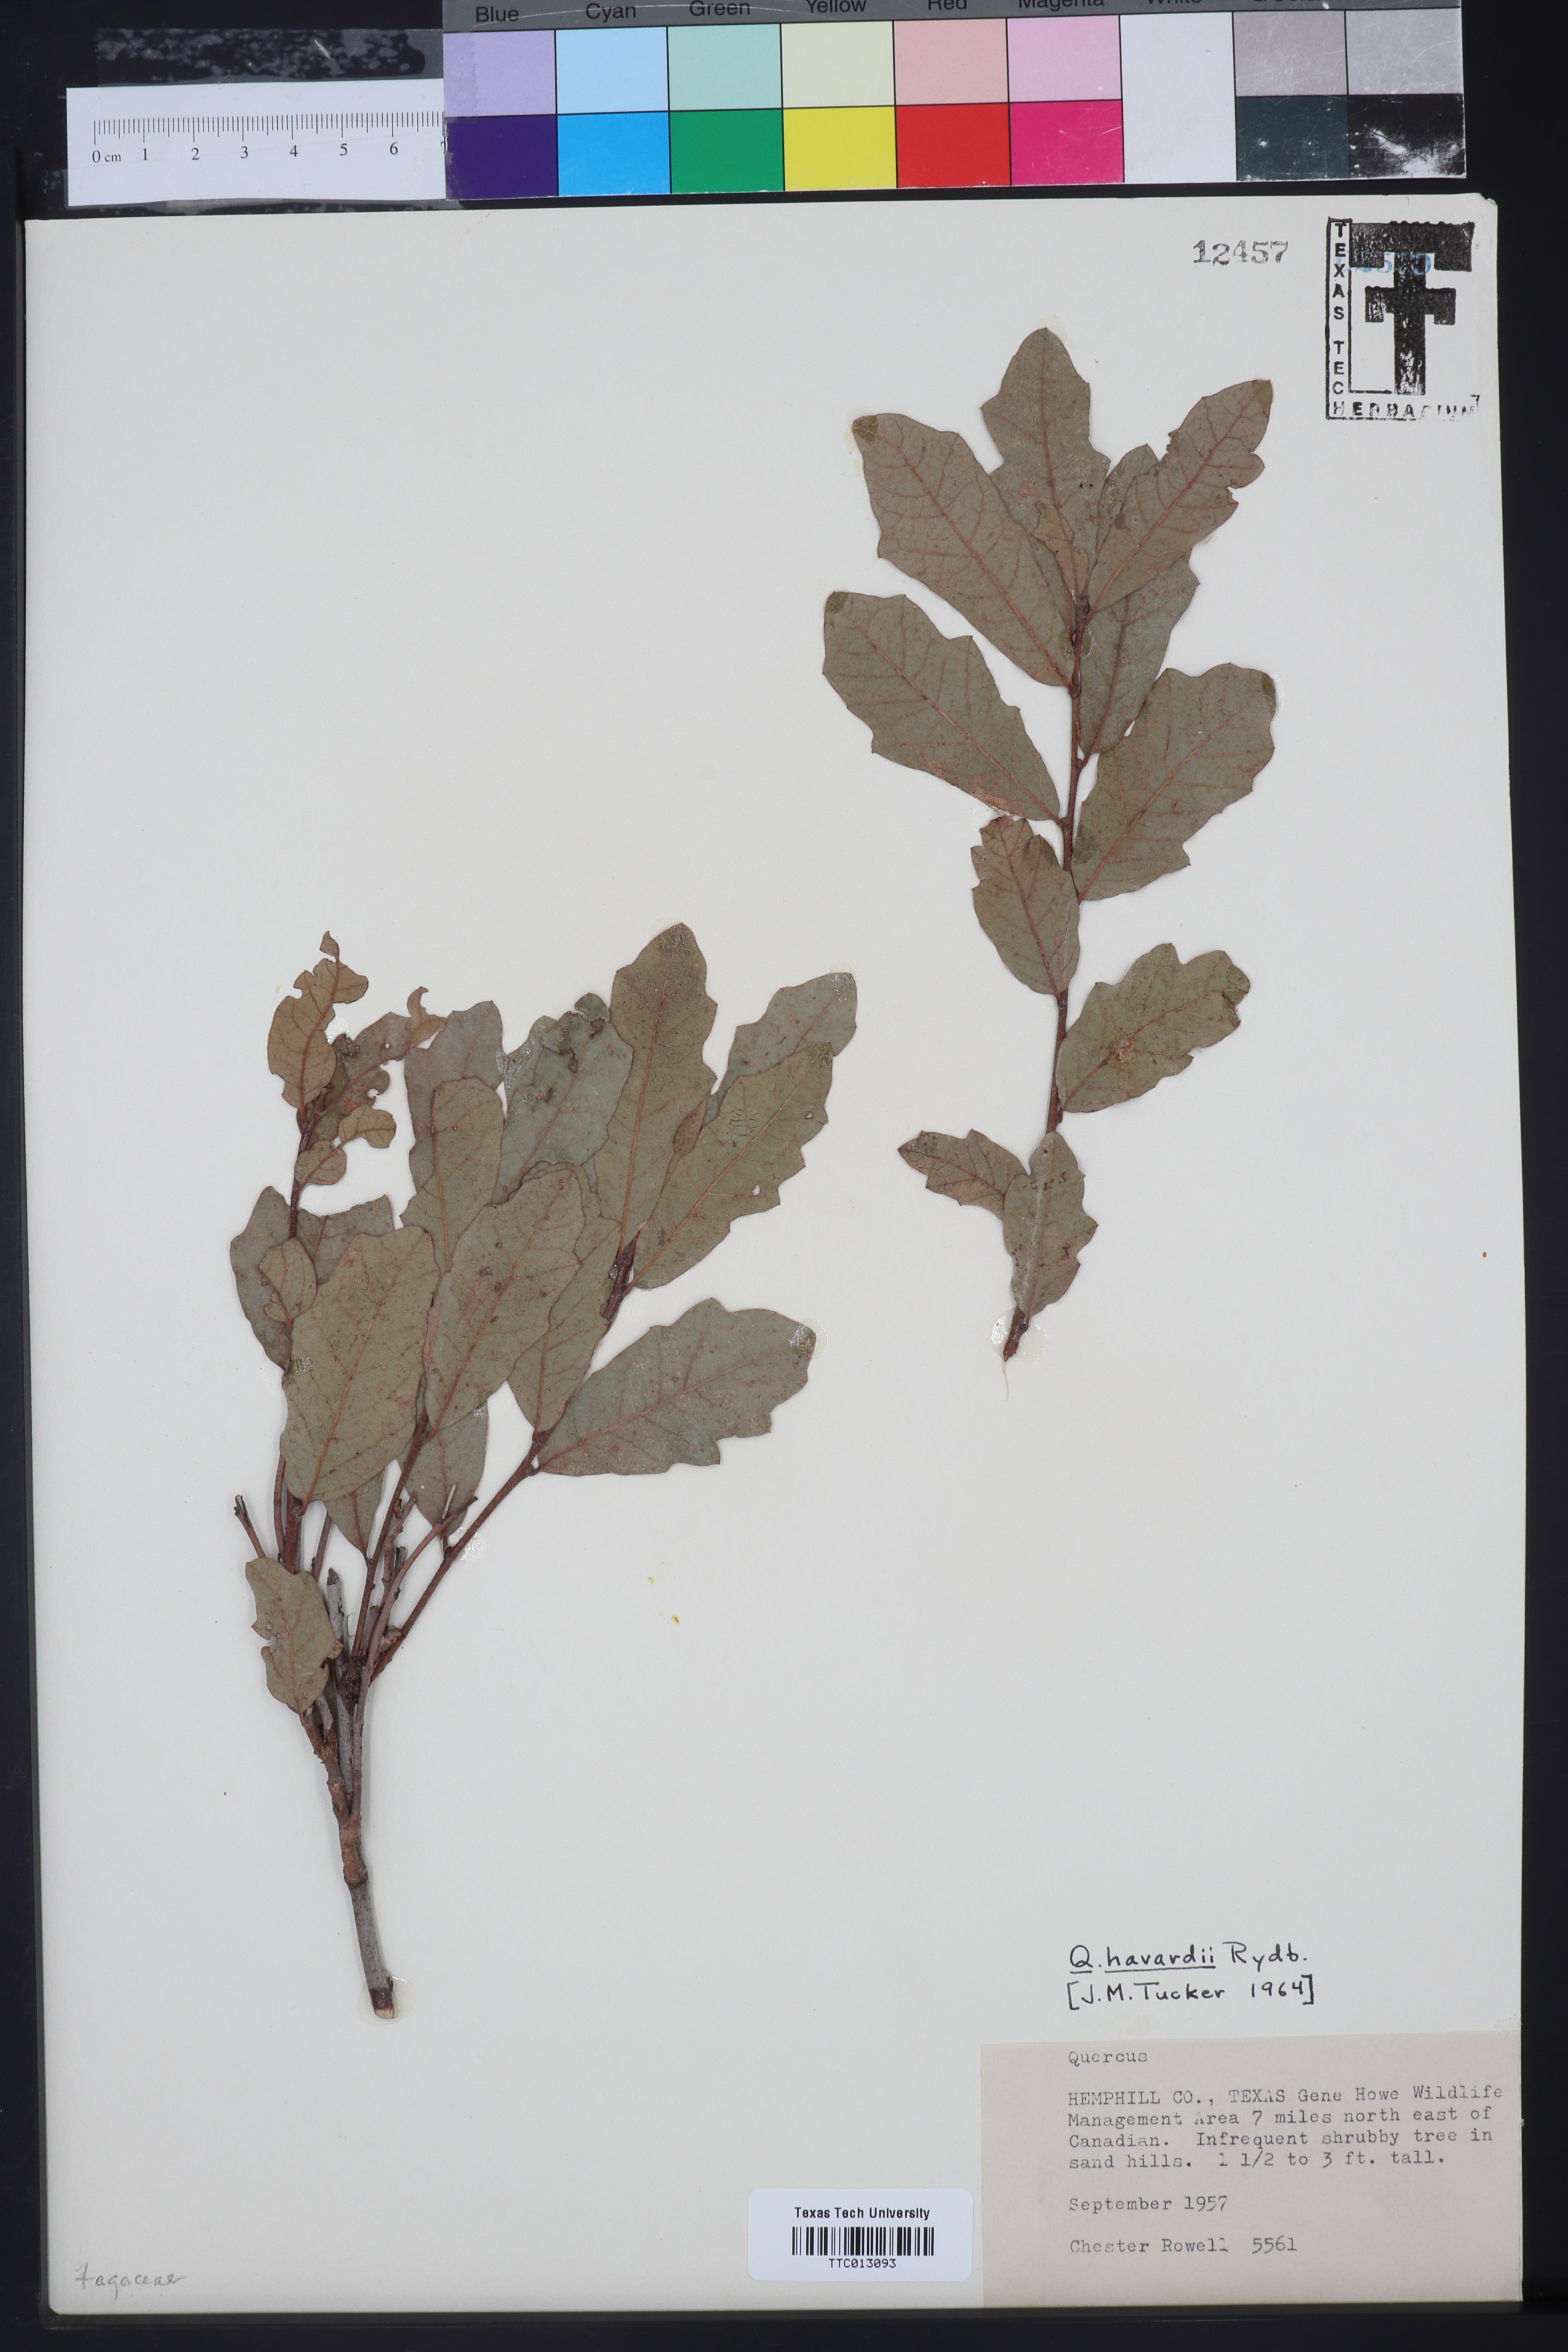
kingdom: Plantae
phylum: Tracheophyta
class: Magnoliopsida
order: Fagales
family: Fagaceae
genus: Quercus
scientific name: Quercus havardii
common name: Shinnery oak
